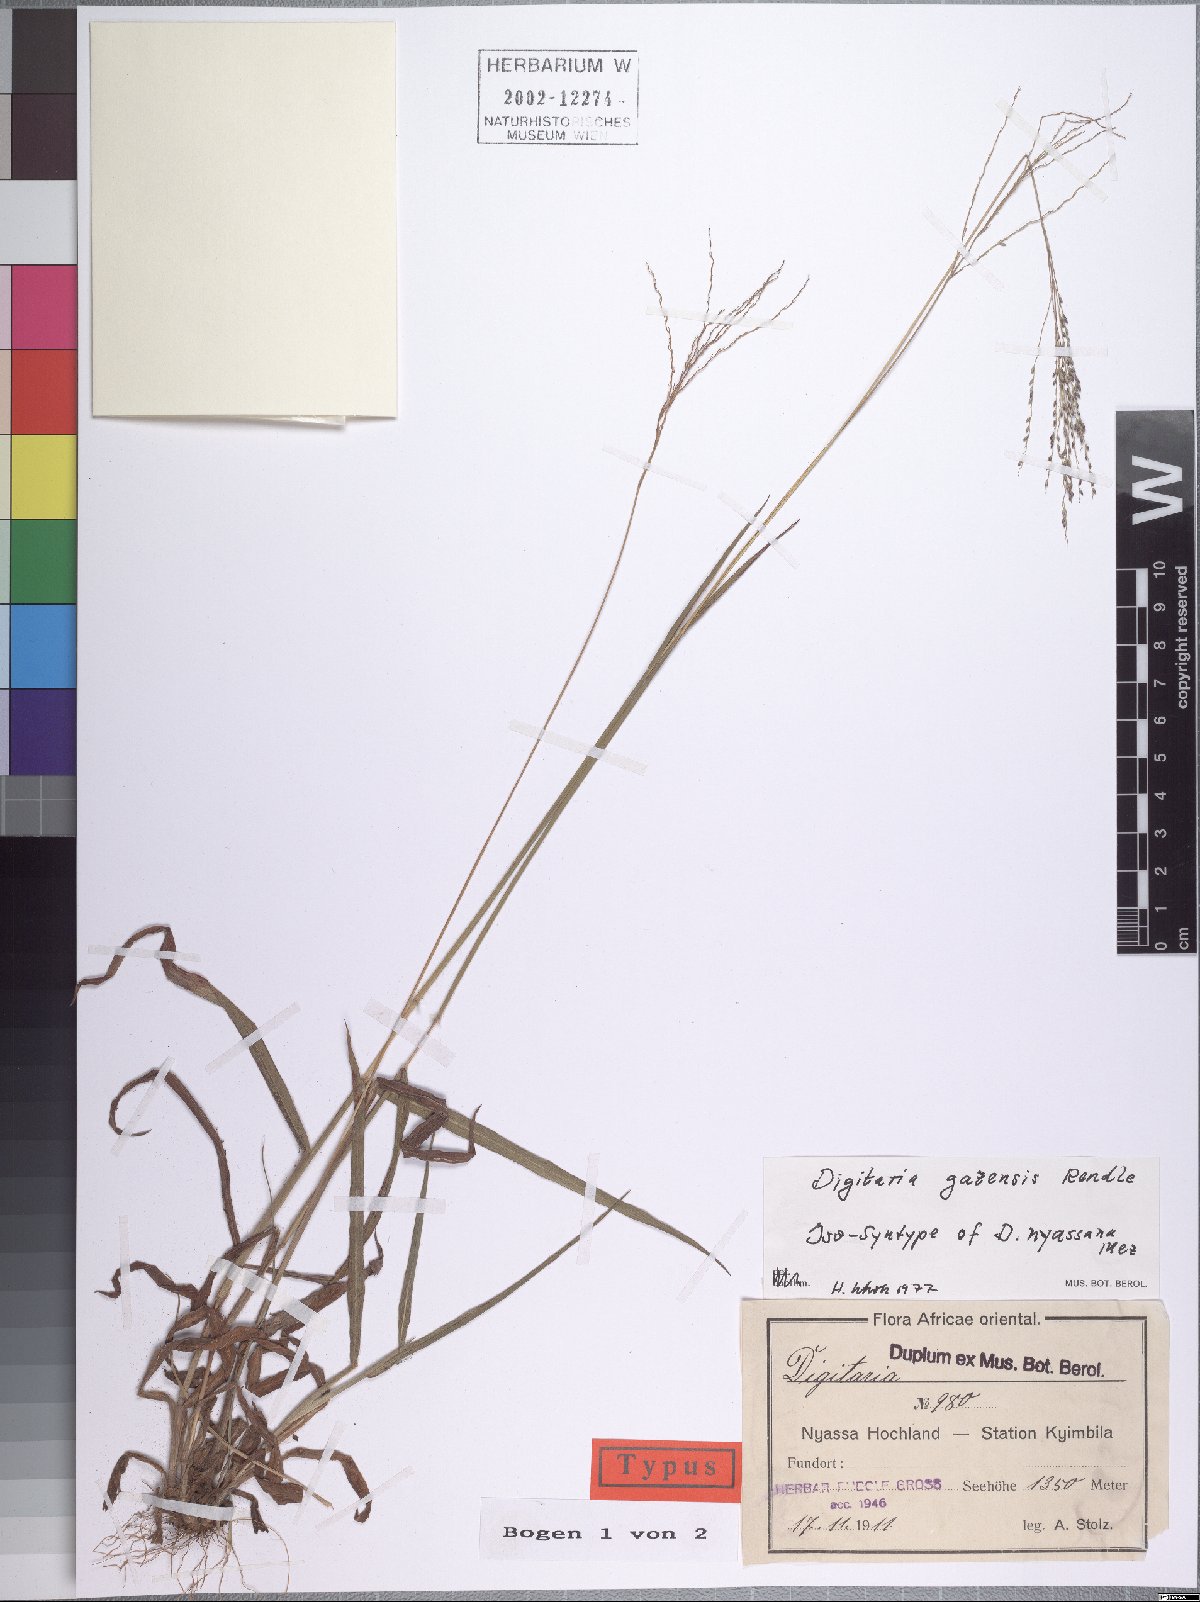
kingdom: Plantae
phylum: Tracheophyta
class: Liliopsida
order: Poales
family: Poaceae
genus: Digitaria
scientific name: Digitaria gazensis
